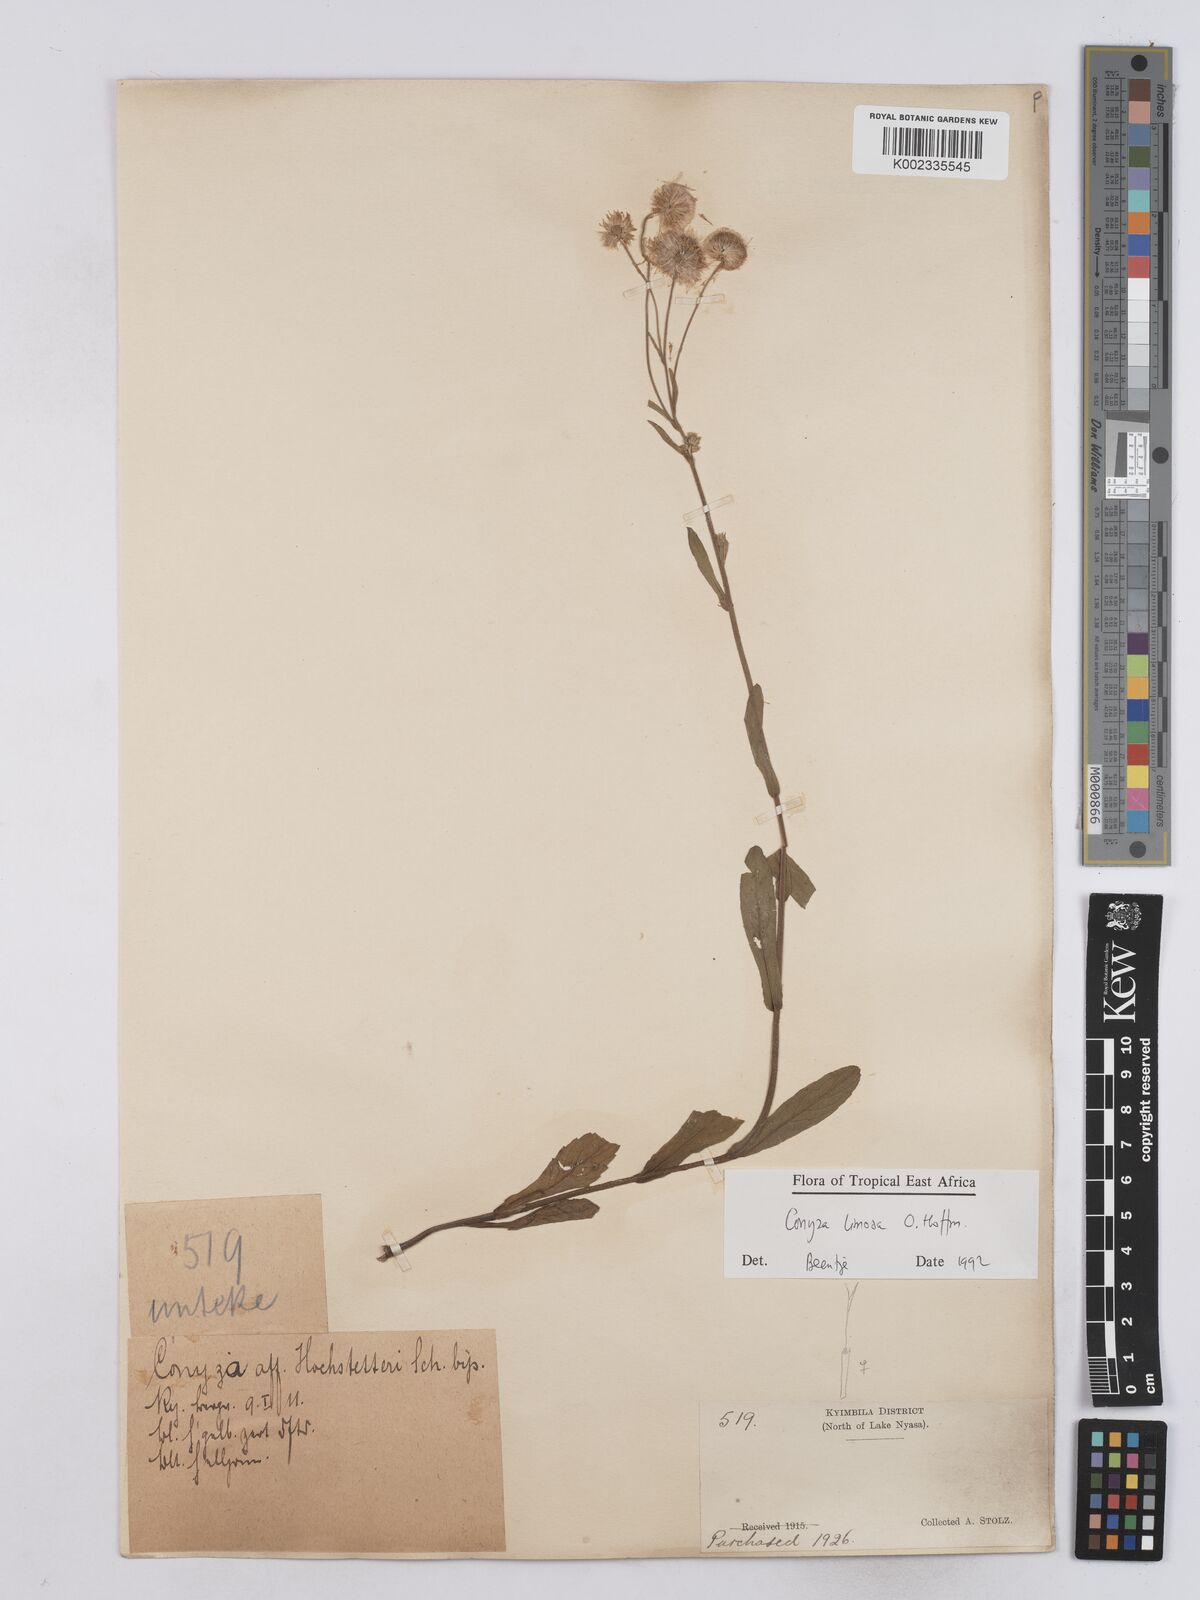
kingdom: Plantae
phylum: Tracheophyta
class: Magnoliopsida
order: Asterales
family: Asteraceae
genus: Conyza
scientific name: Conyza limosa
